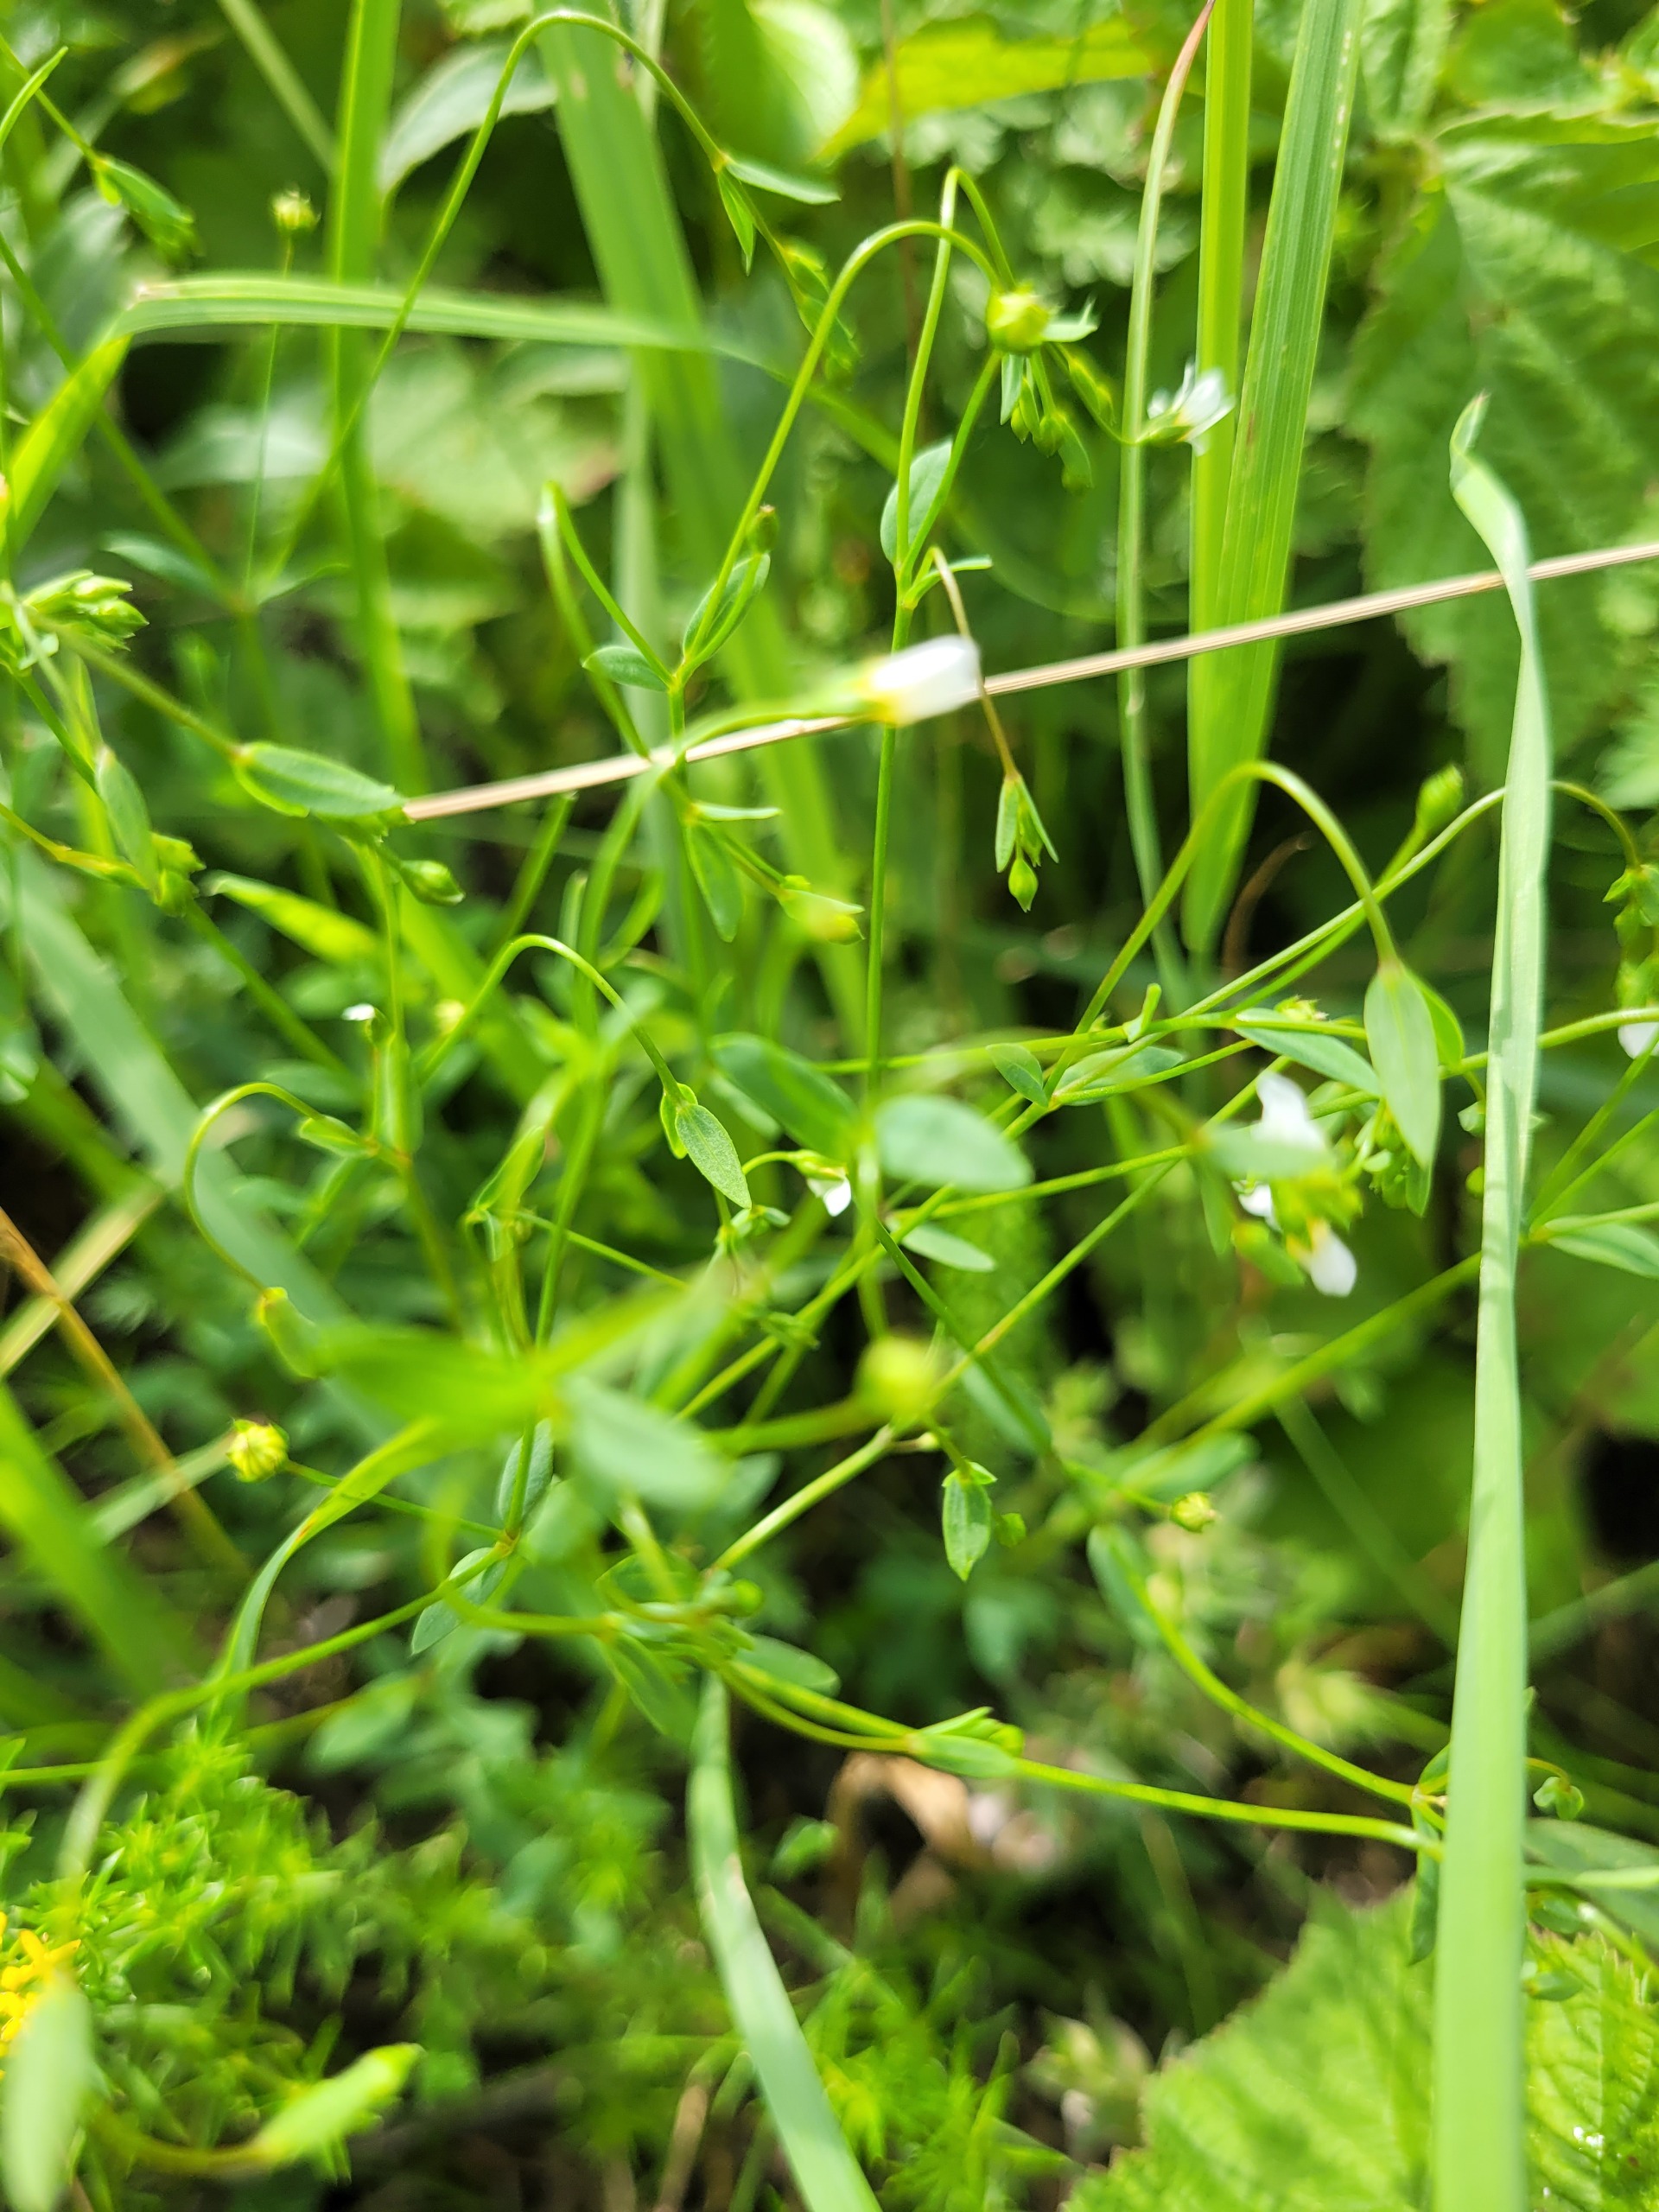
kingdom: Plantae
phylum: Tracheophyta
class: Magnoliopsida
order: Malpighiales
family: Linaceae
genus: Linum
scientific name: Linum catharticum
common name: Vild hør
